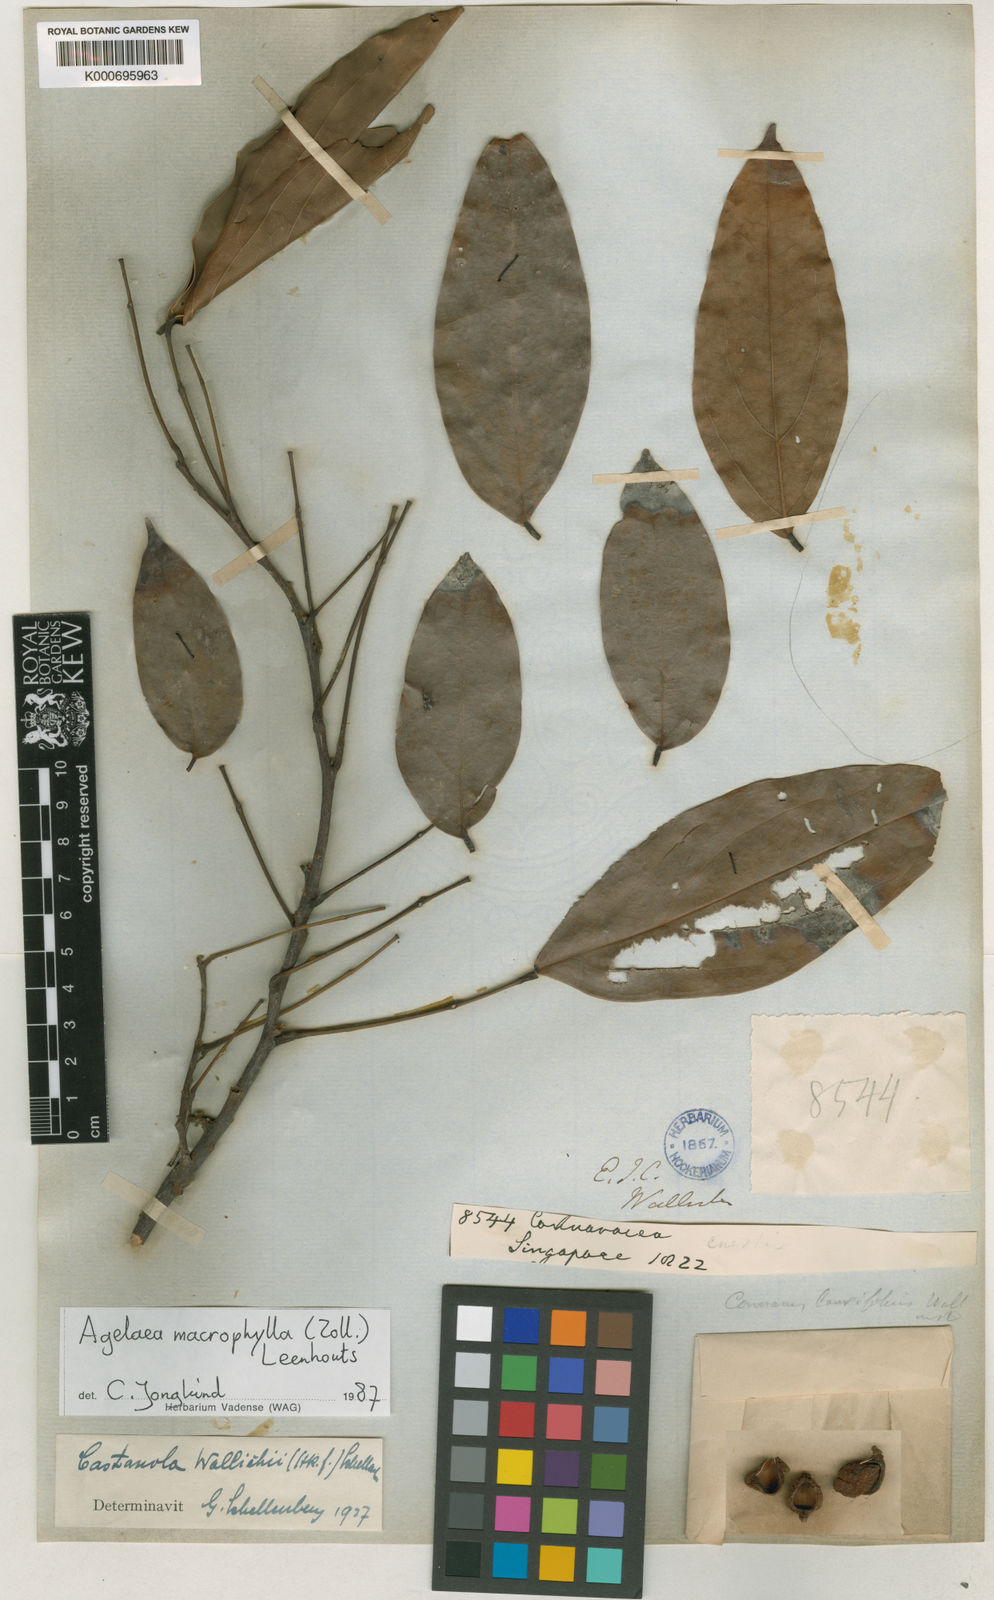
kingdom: Plantae
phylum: Tracheophyta
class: Magnoliopsida
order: Oxalidales
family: Connaraceae
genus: Agelaea
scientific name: Agelaea macrophylla
